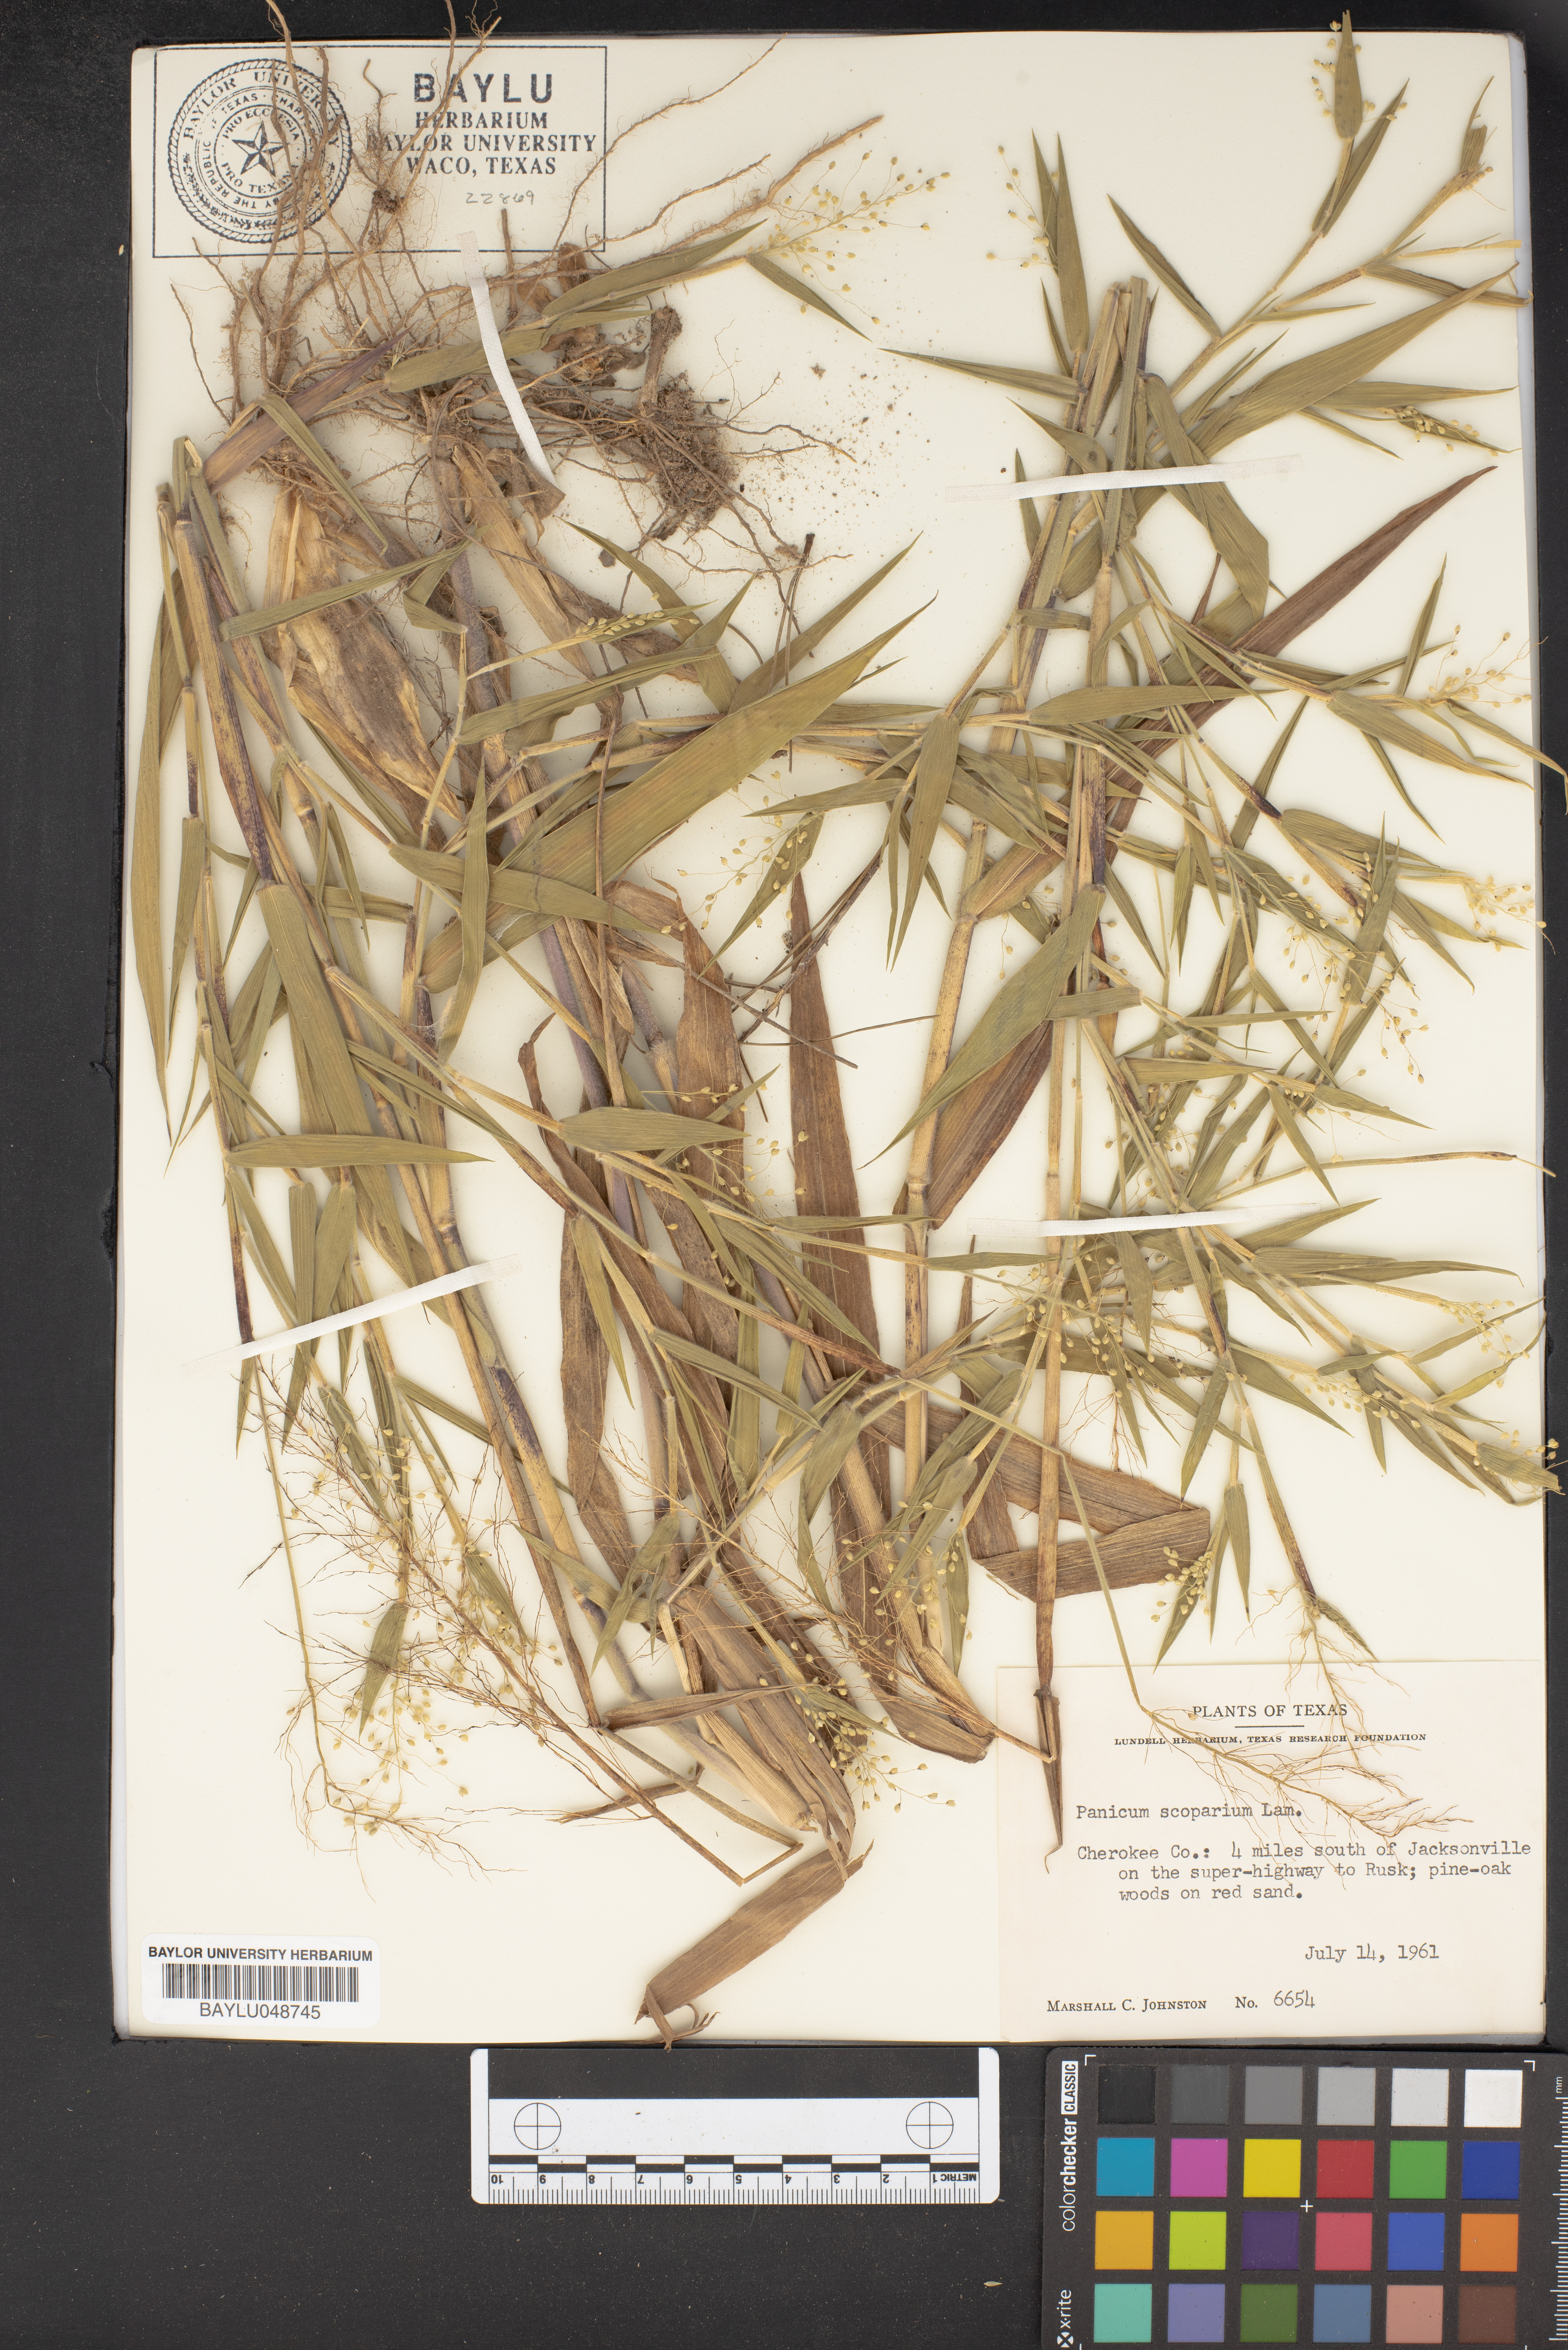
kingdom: Plantae
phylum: Tracheophyta
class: Liliopsida
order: Poales
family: Poaceae
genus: Dichanthelium
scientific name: Dichanthelium scribnerianum
